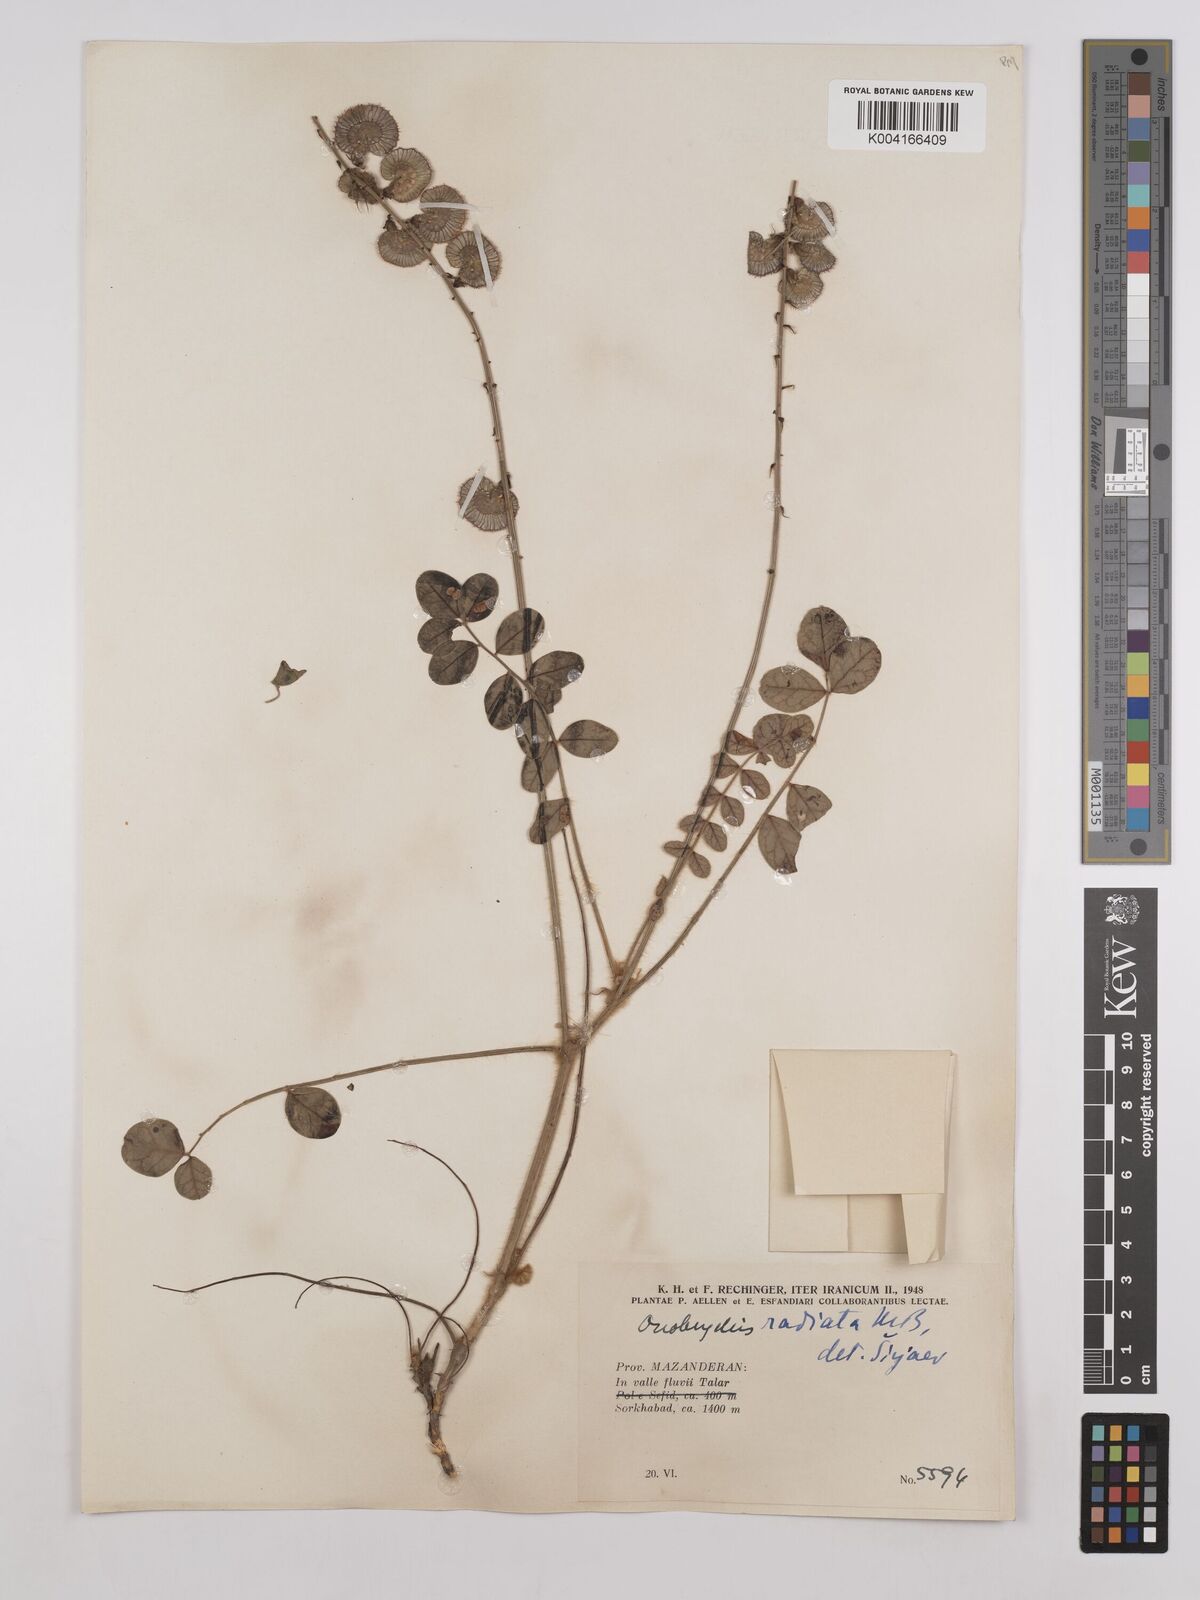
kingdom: Plantae
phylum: Tracheophyta
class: Magnoliopsida
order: Fabales
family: Fabaceae
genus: Onobrychis
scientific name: Onobrychis
